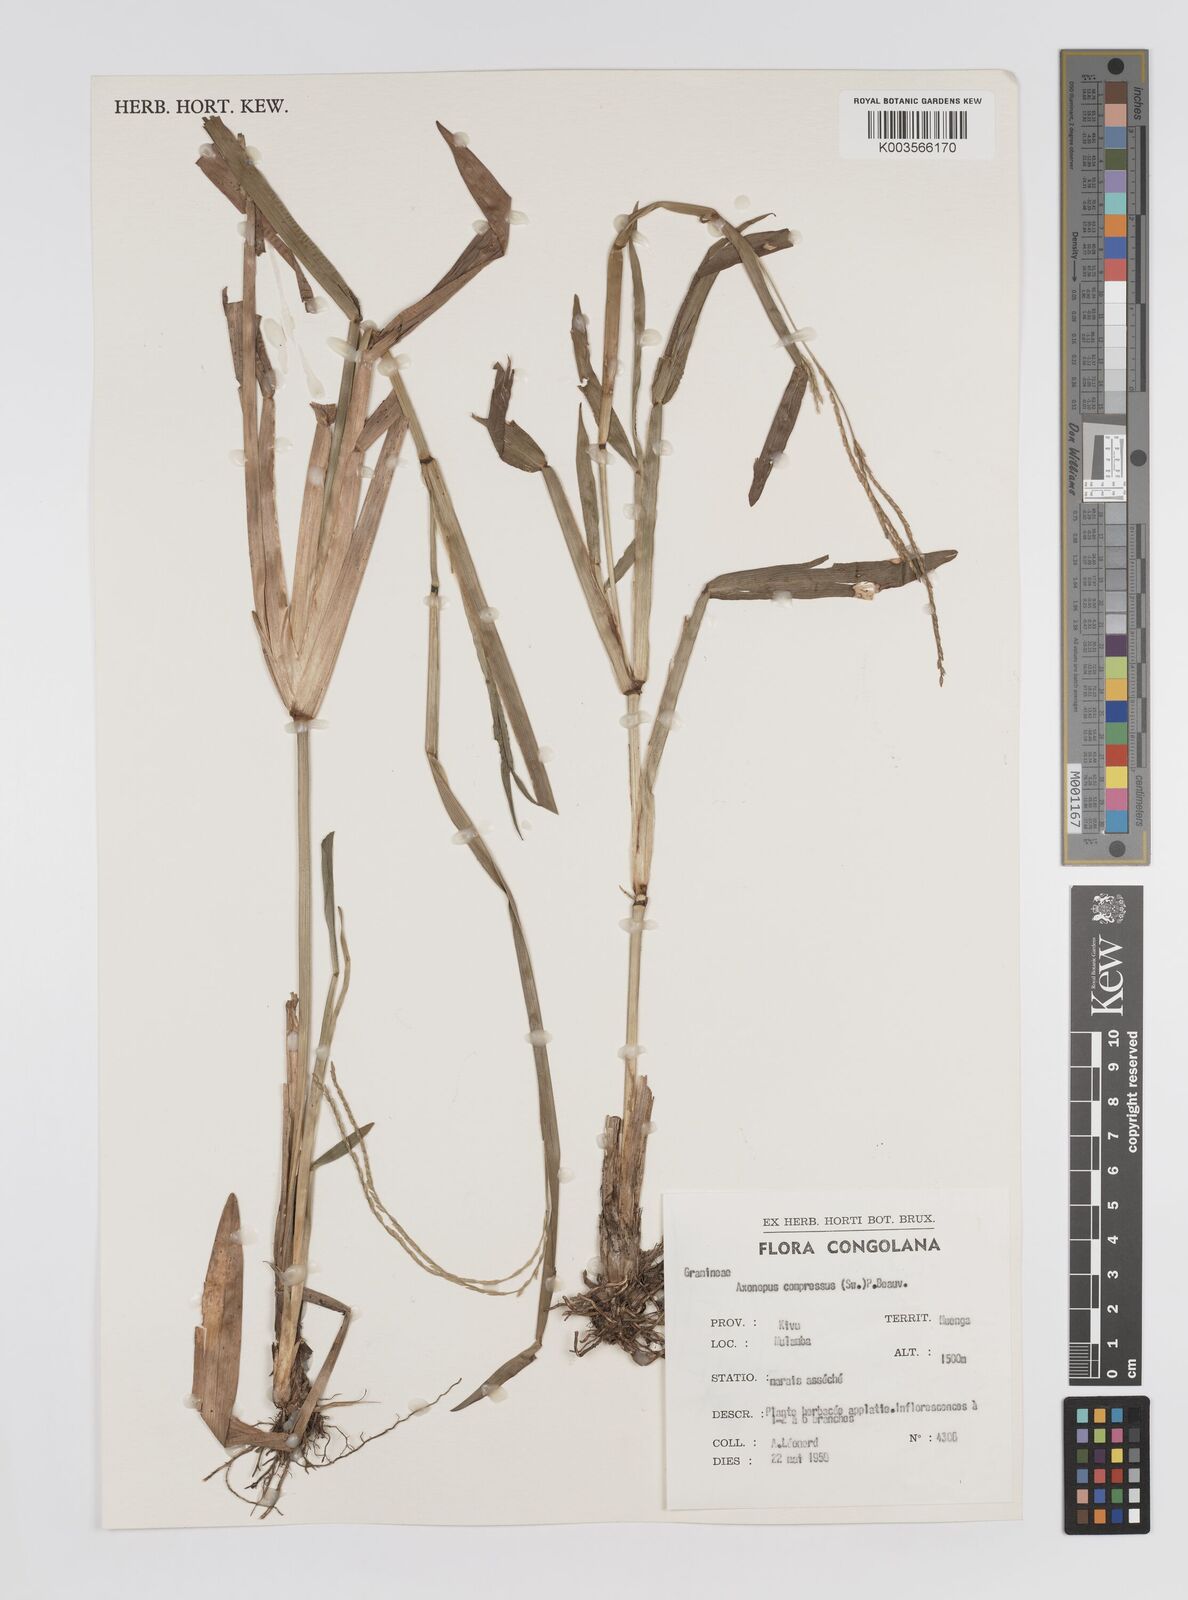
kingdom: Plantae
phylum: Tracheophyta
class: Liliopsida
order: Poales
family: Poaceae
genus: Axonopus
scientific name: Axonopus flexuosus
